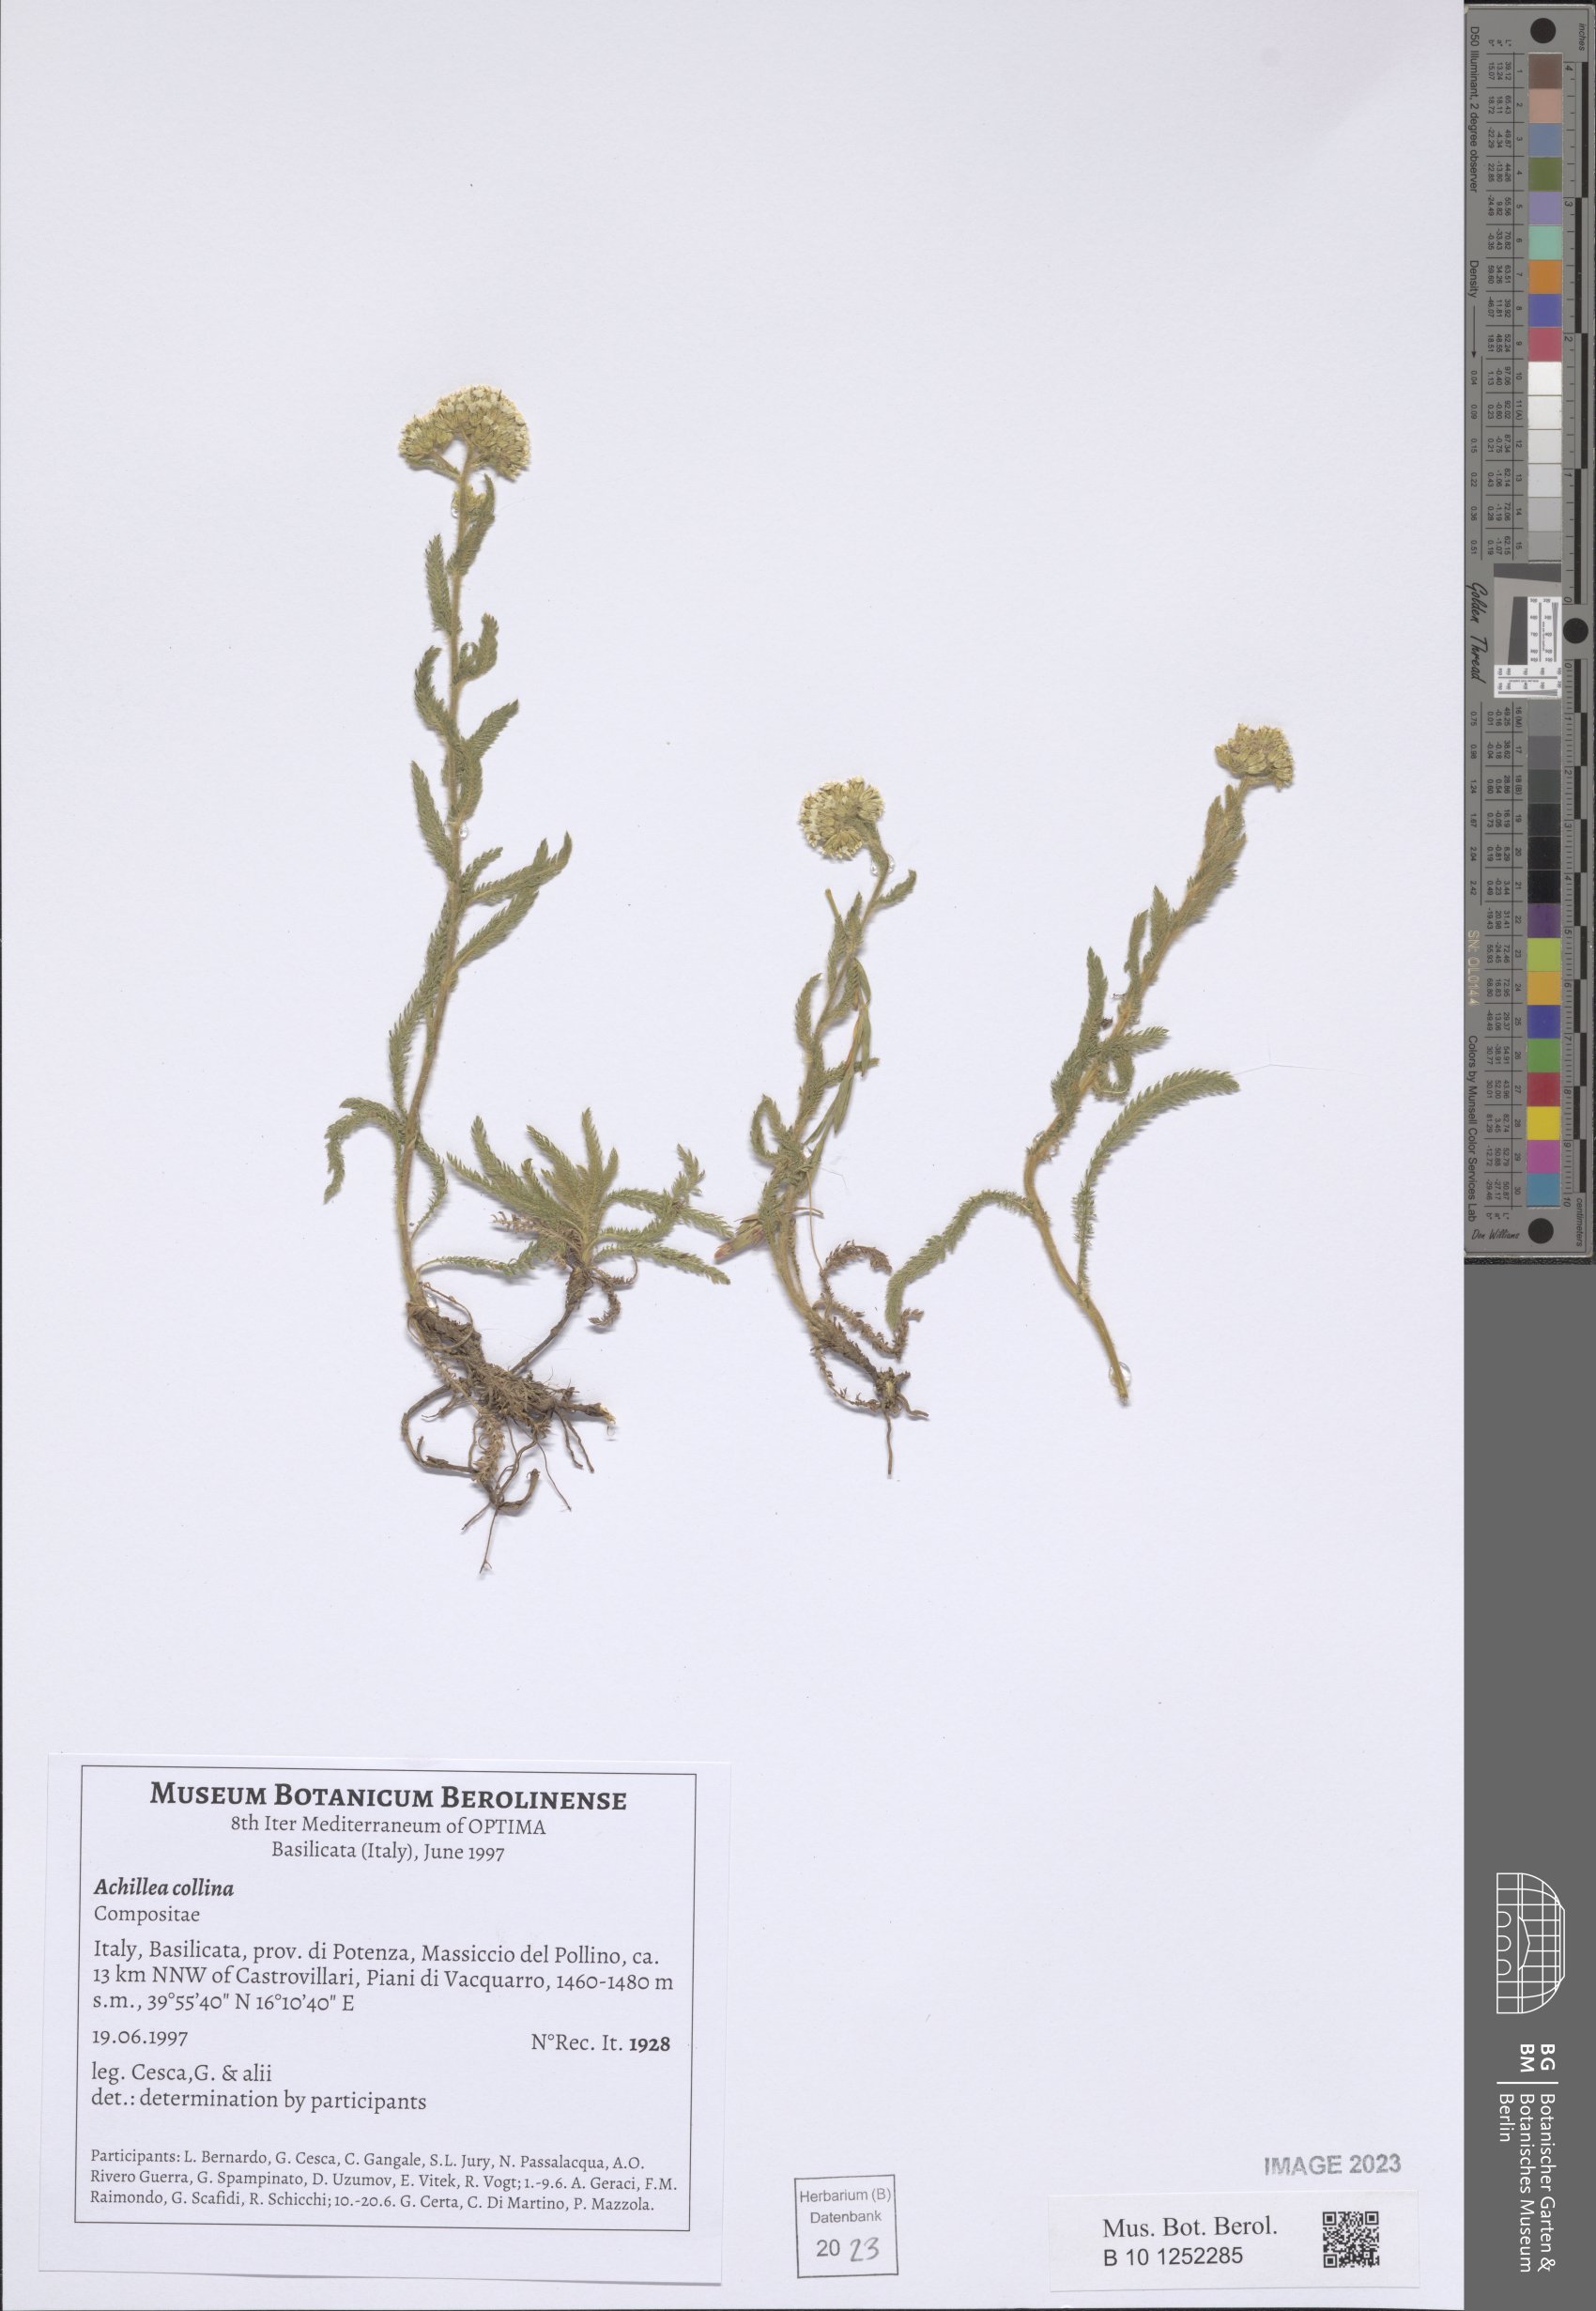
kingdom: Plantae
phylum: Tracheophyta
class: Magnoliopsida
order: Asterales
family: Asteraceae
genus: Achillea
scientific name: Achillea collina
